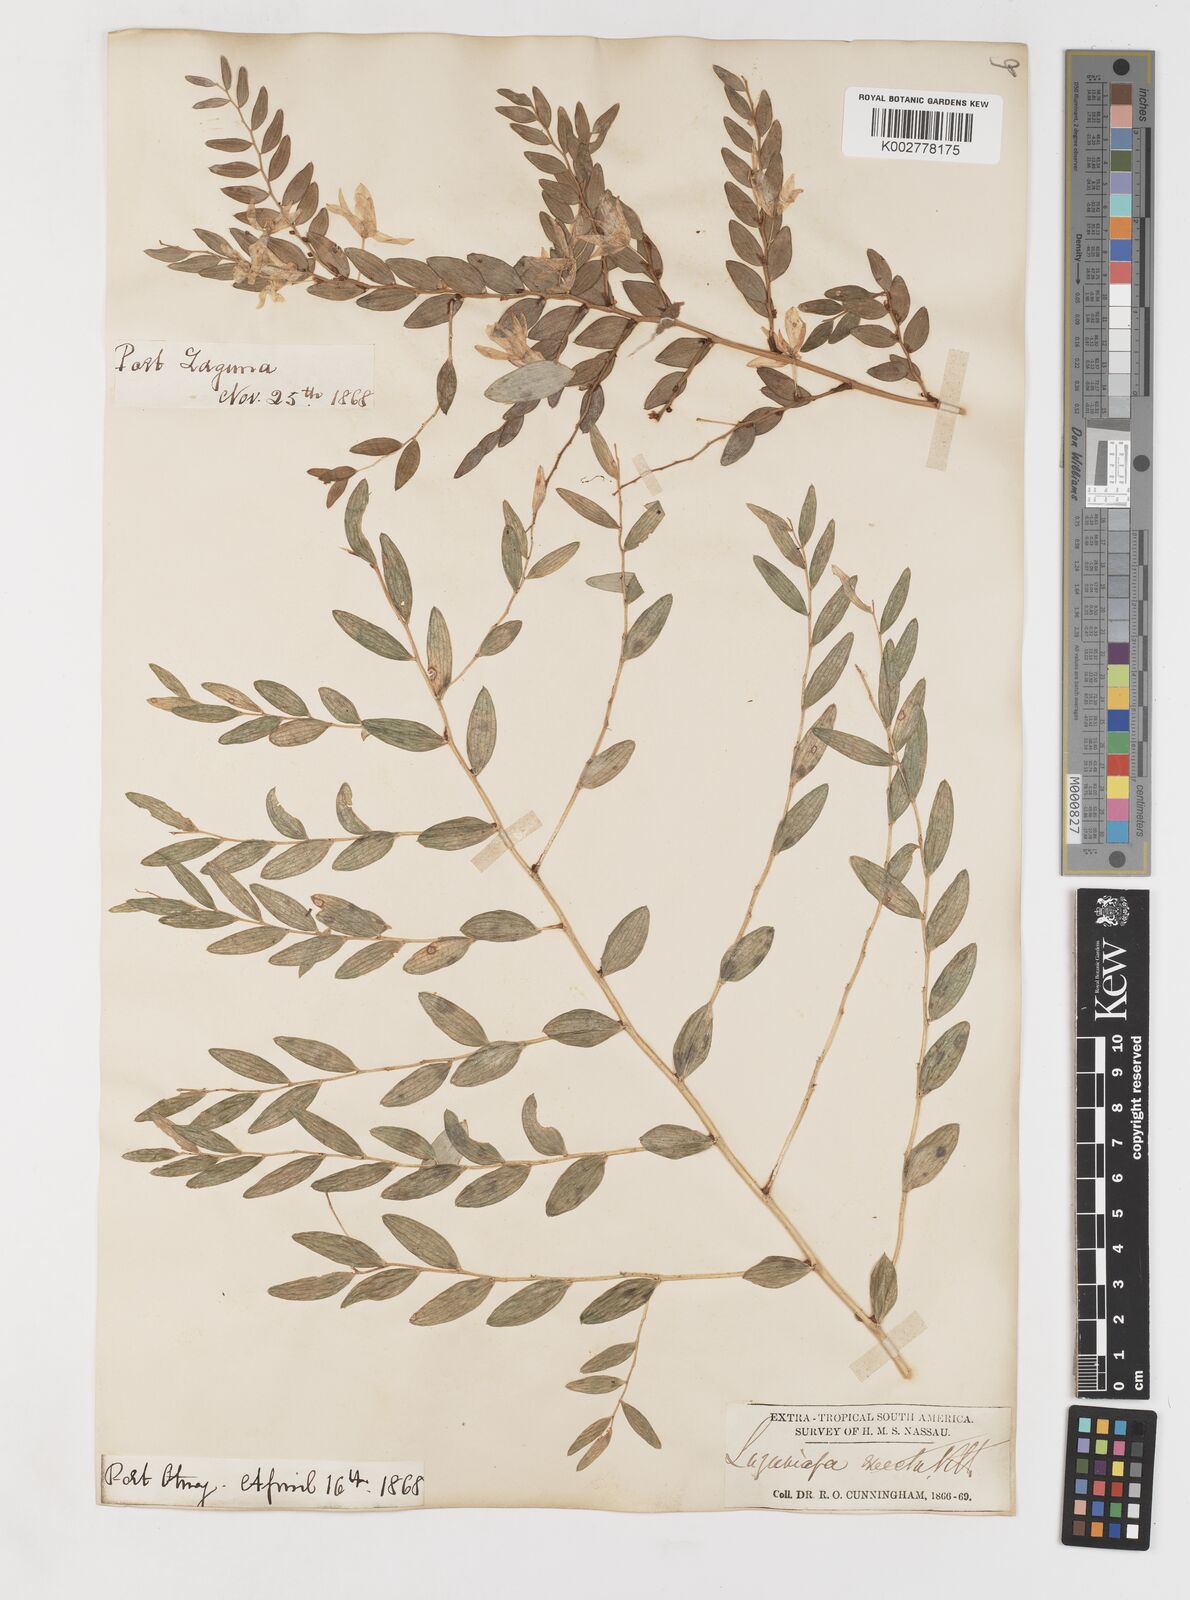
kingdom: Plantae
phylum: Tracheophyta
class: Liliopsida
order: Liliales
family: Alstroemeriaceae
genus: Luzuriaga
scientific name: Luzuriaga polyphylla
